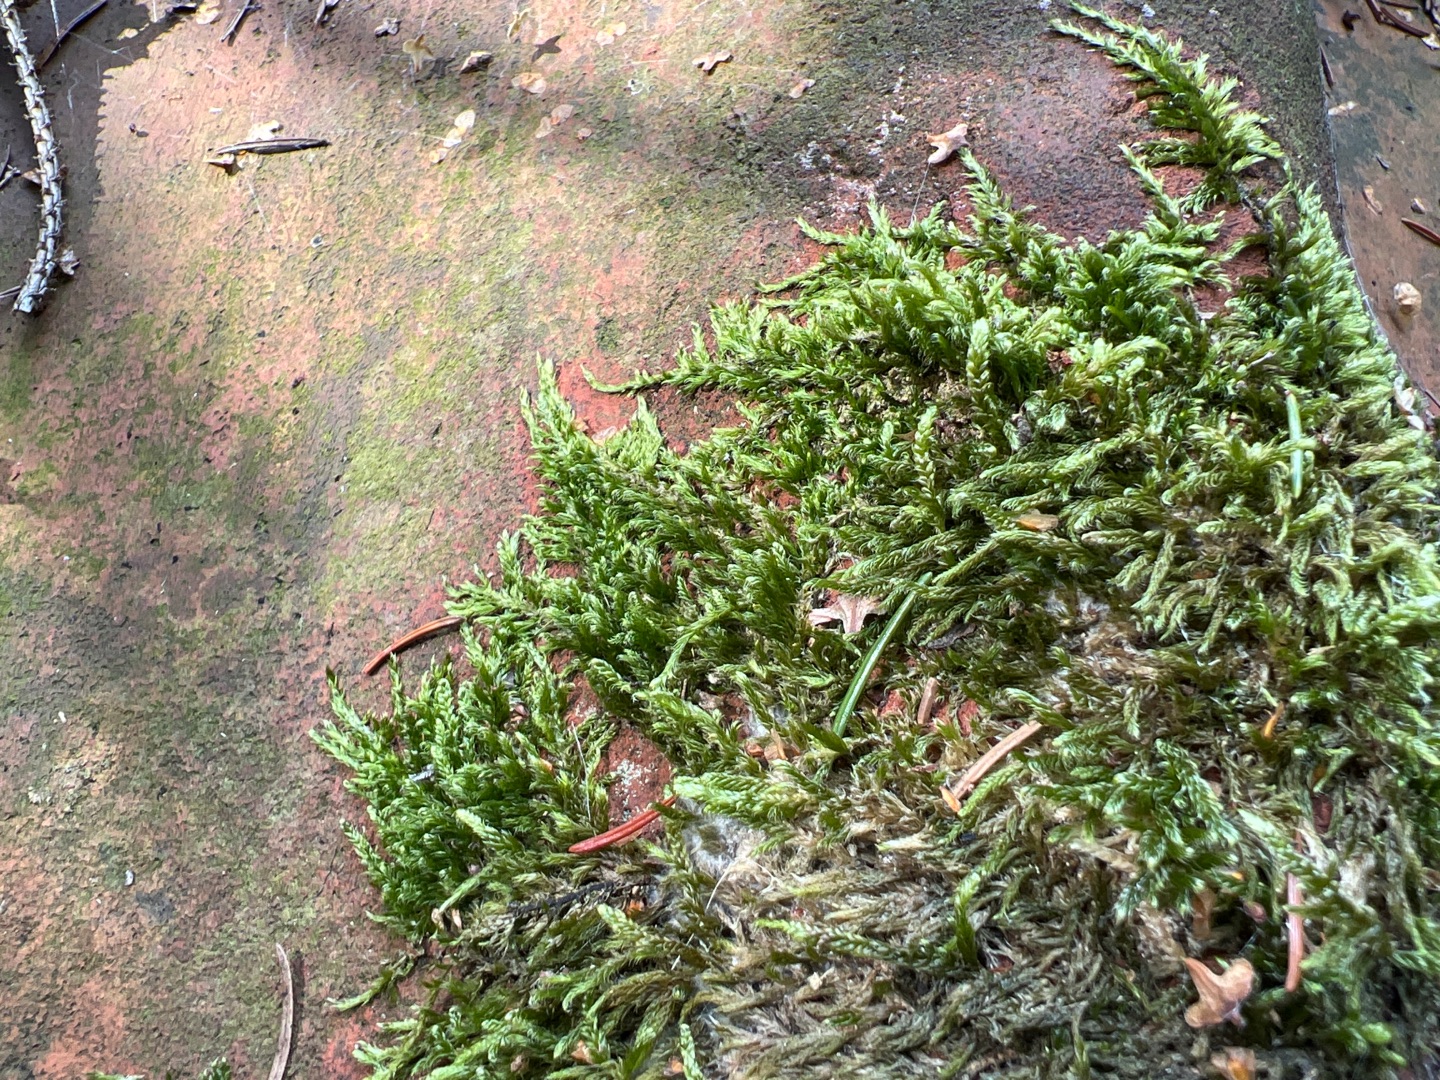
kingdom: Plantae
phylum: Bryophyta
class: Bryopsida
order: Hypnales
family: Hypnaceae
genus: Hypnum
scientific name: Hypnum cupressiforme
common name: Almindelig cypresmos
